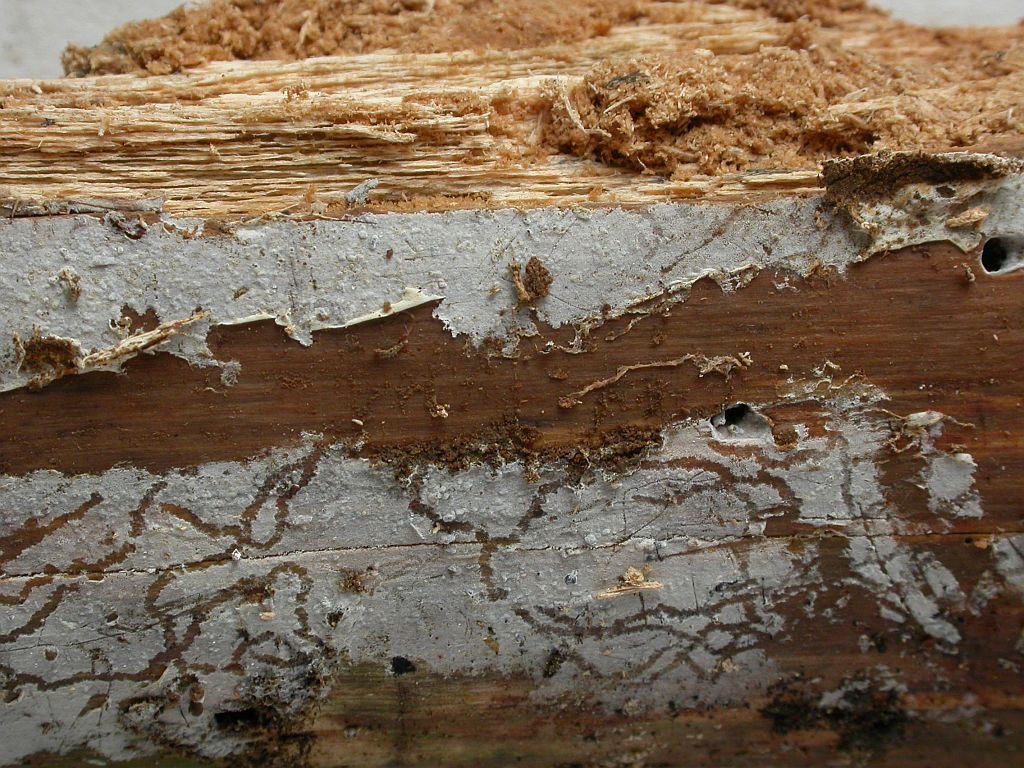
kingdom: Fungi
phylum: Basidiomycota
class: Agaricomycetes
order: Cantharellales
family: Botryobasidiaceae
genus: Botryobasidium
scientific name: Botryobasidium subcoronatum
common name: almindelig spindhinde
